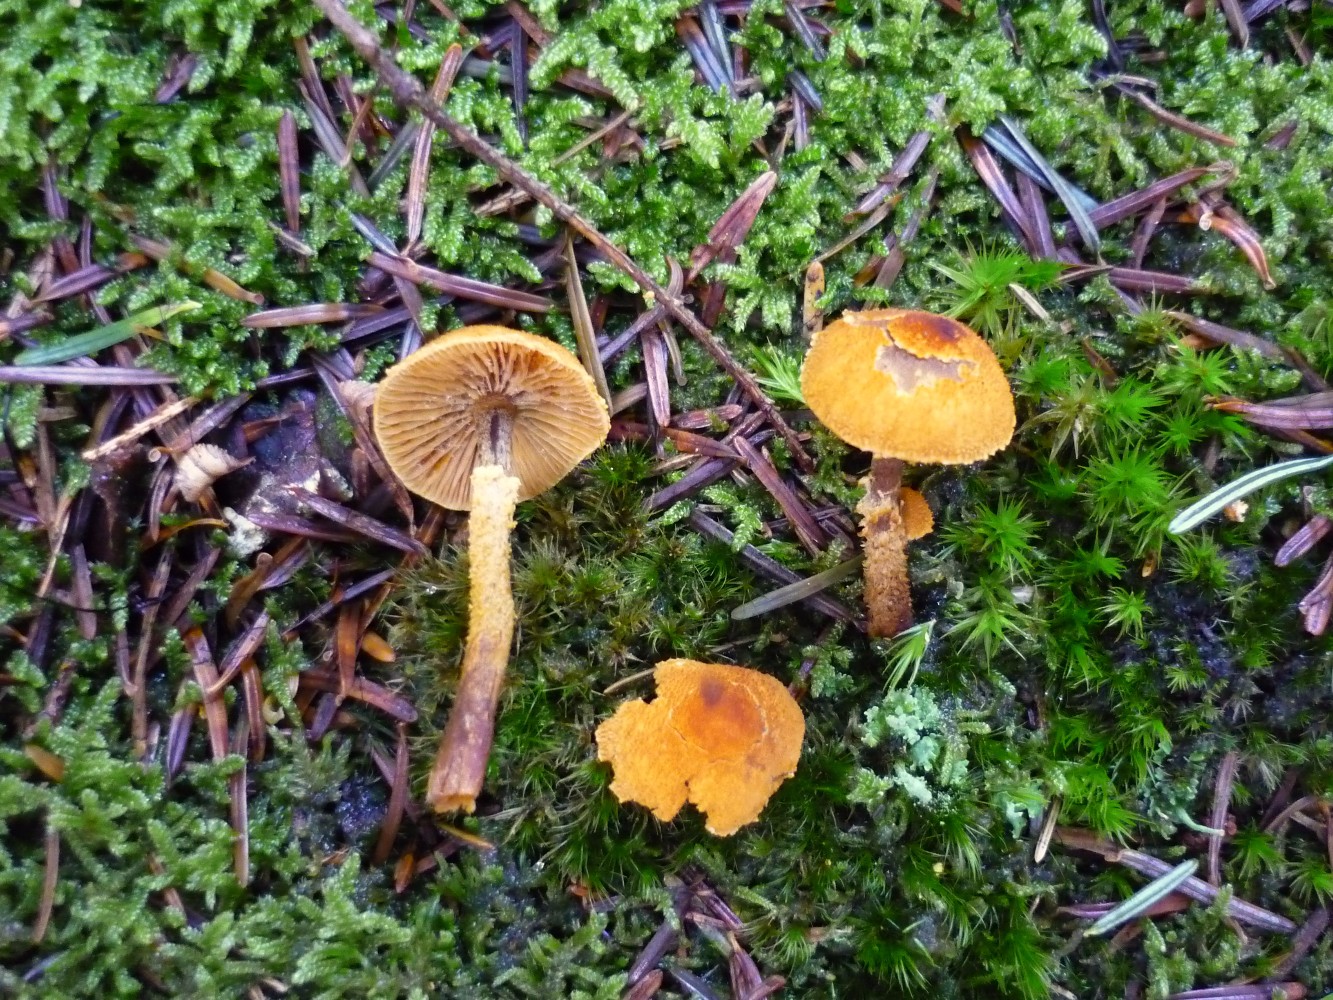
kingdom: Fungi
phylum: Basidiomycota
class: Agaricomycetes
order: Agaricales
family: Tricholomataceae
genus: Cystoderma
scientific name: Cystoderma jasonis
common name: gulkødet grynhat
